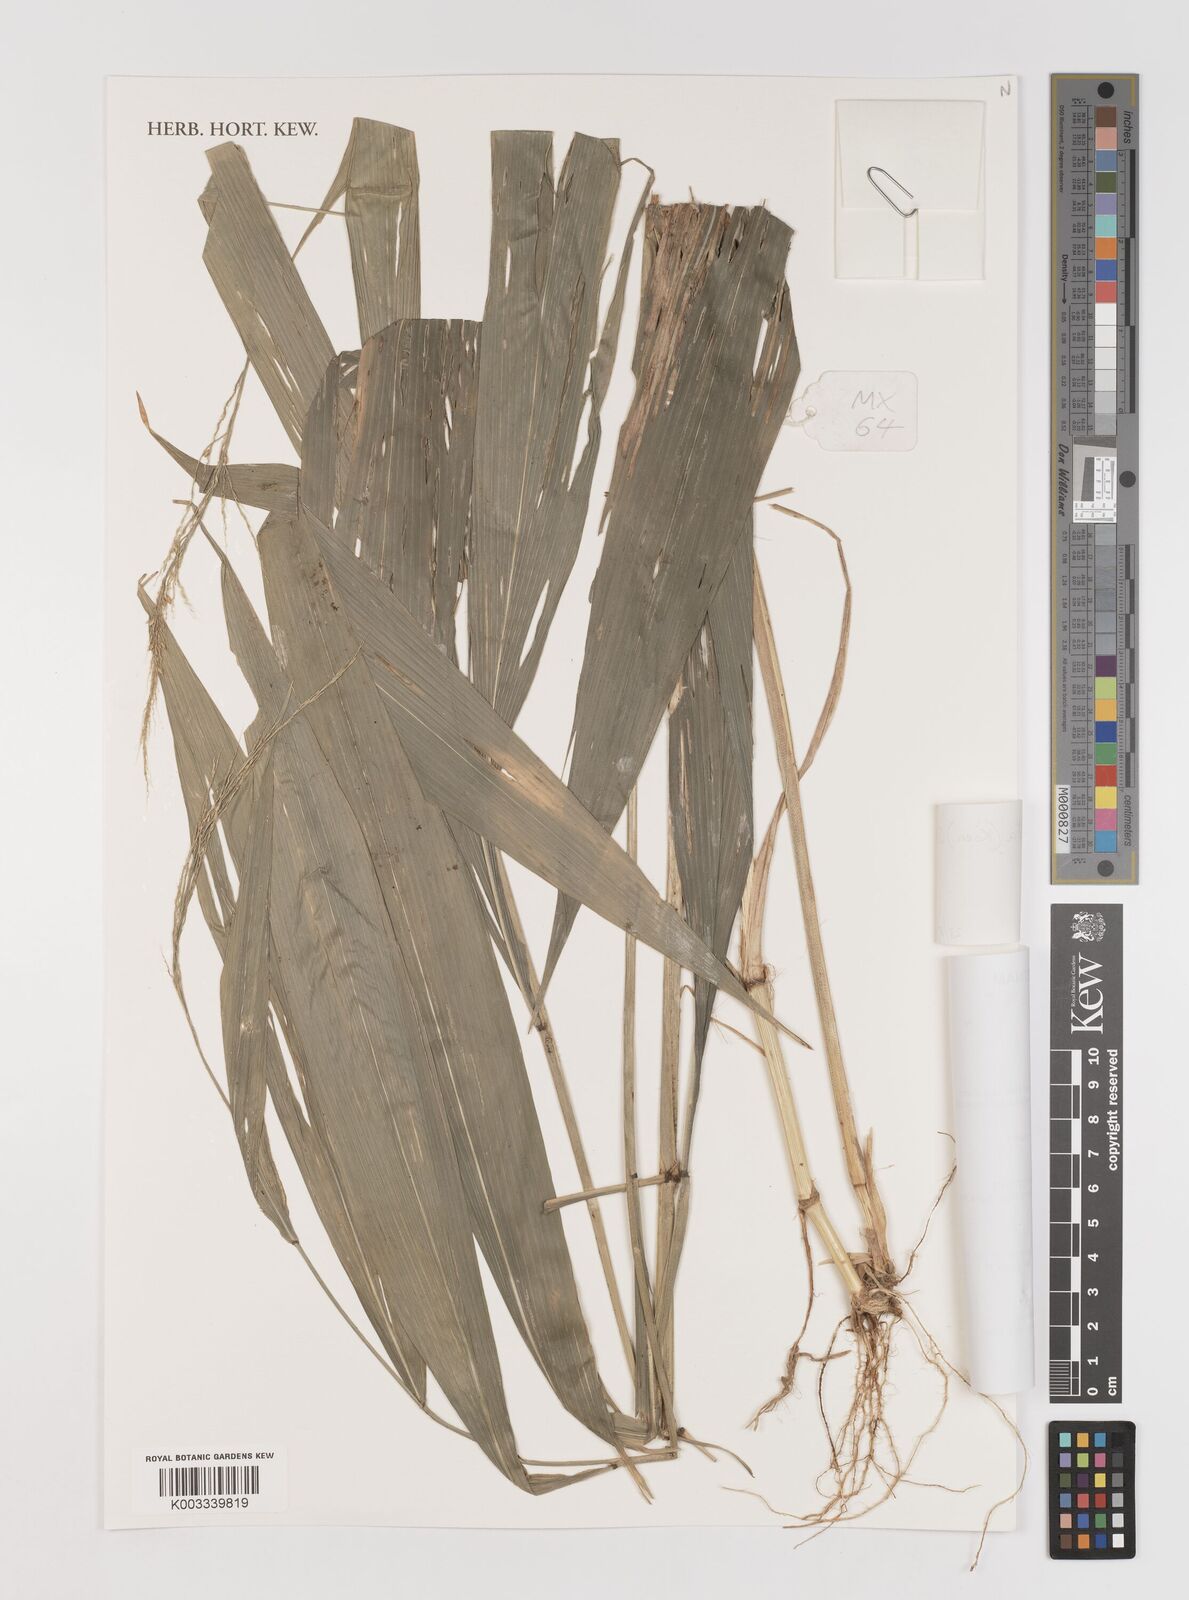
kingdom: Plantae
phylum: Tracheophyta
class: Liliopsida
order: Poales
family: Poaceae
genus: Setaria
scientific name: Setaria palmifolia
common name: Broadleaved bristlegrass
